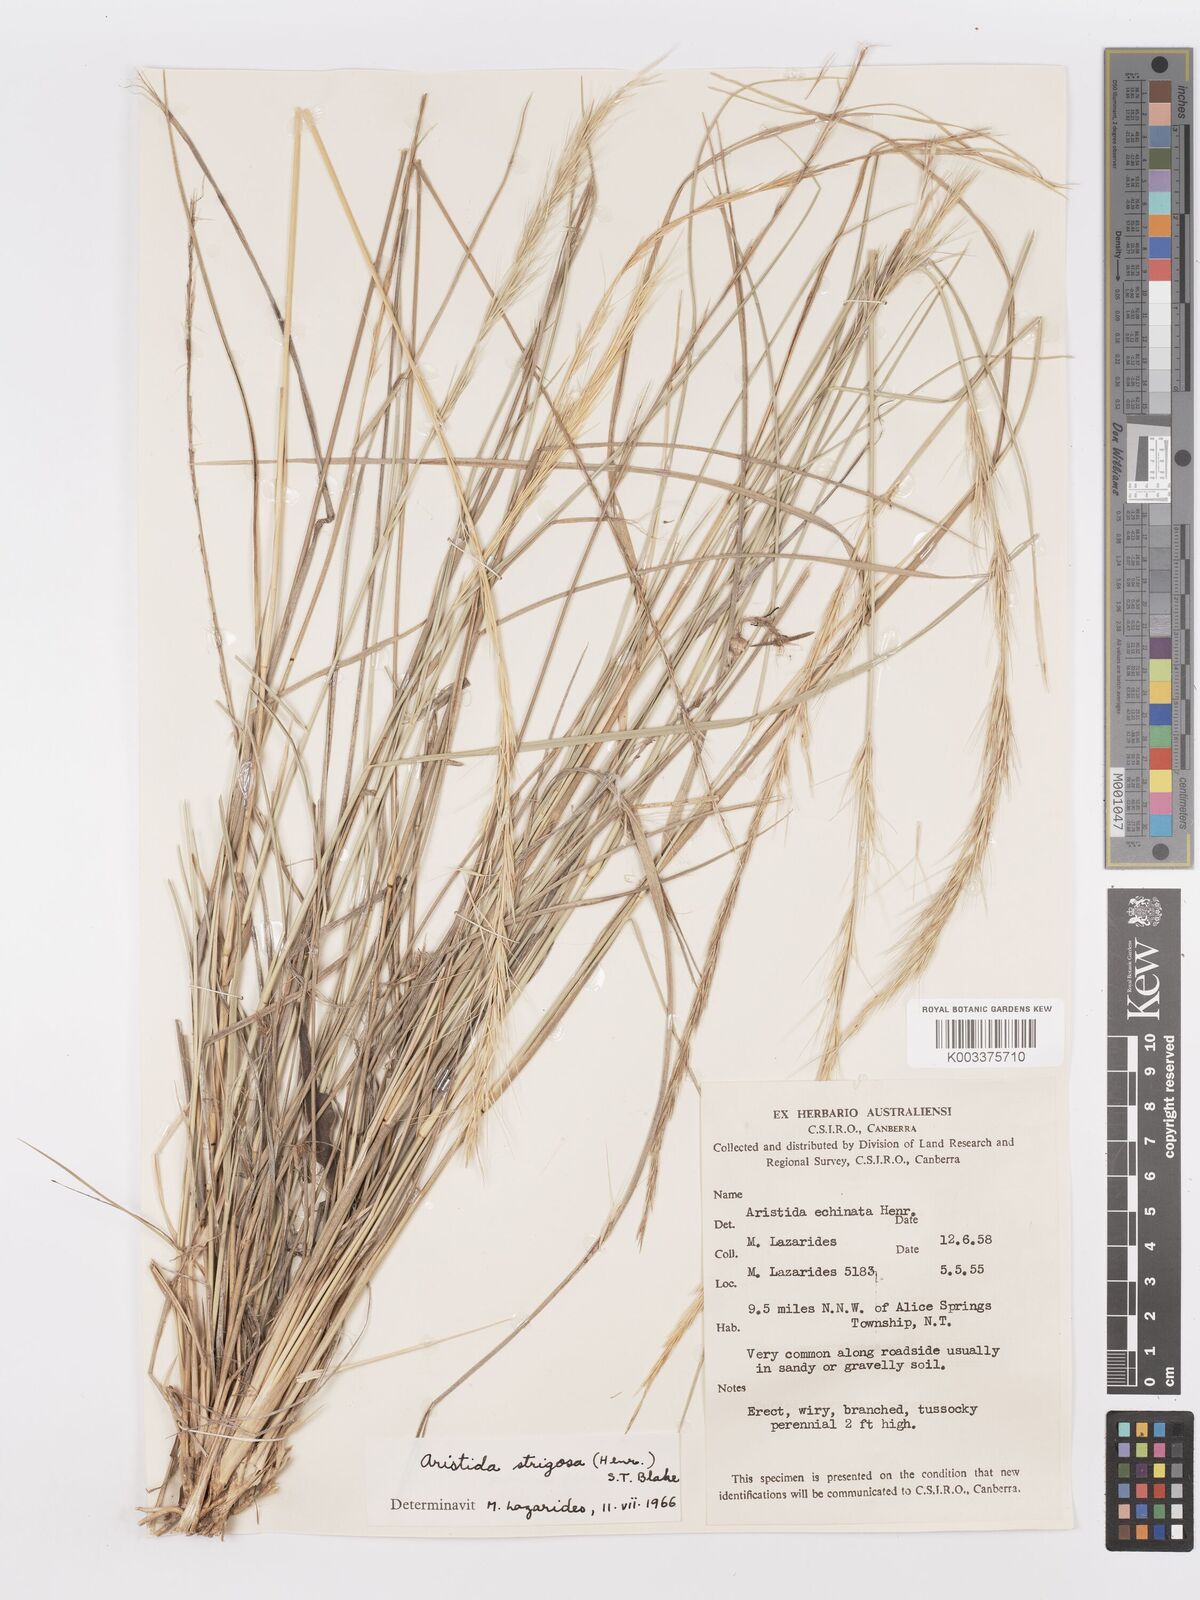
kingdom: Plantae
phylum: Tracheophyta
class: Liliopsida
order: Poales
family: Poaceae
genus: Aristida
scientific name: Aristida strigosa
